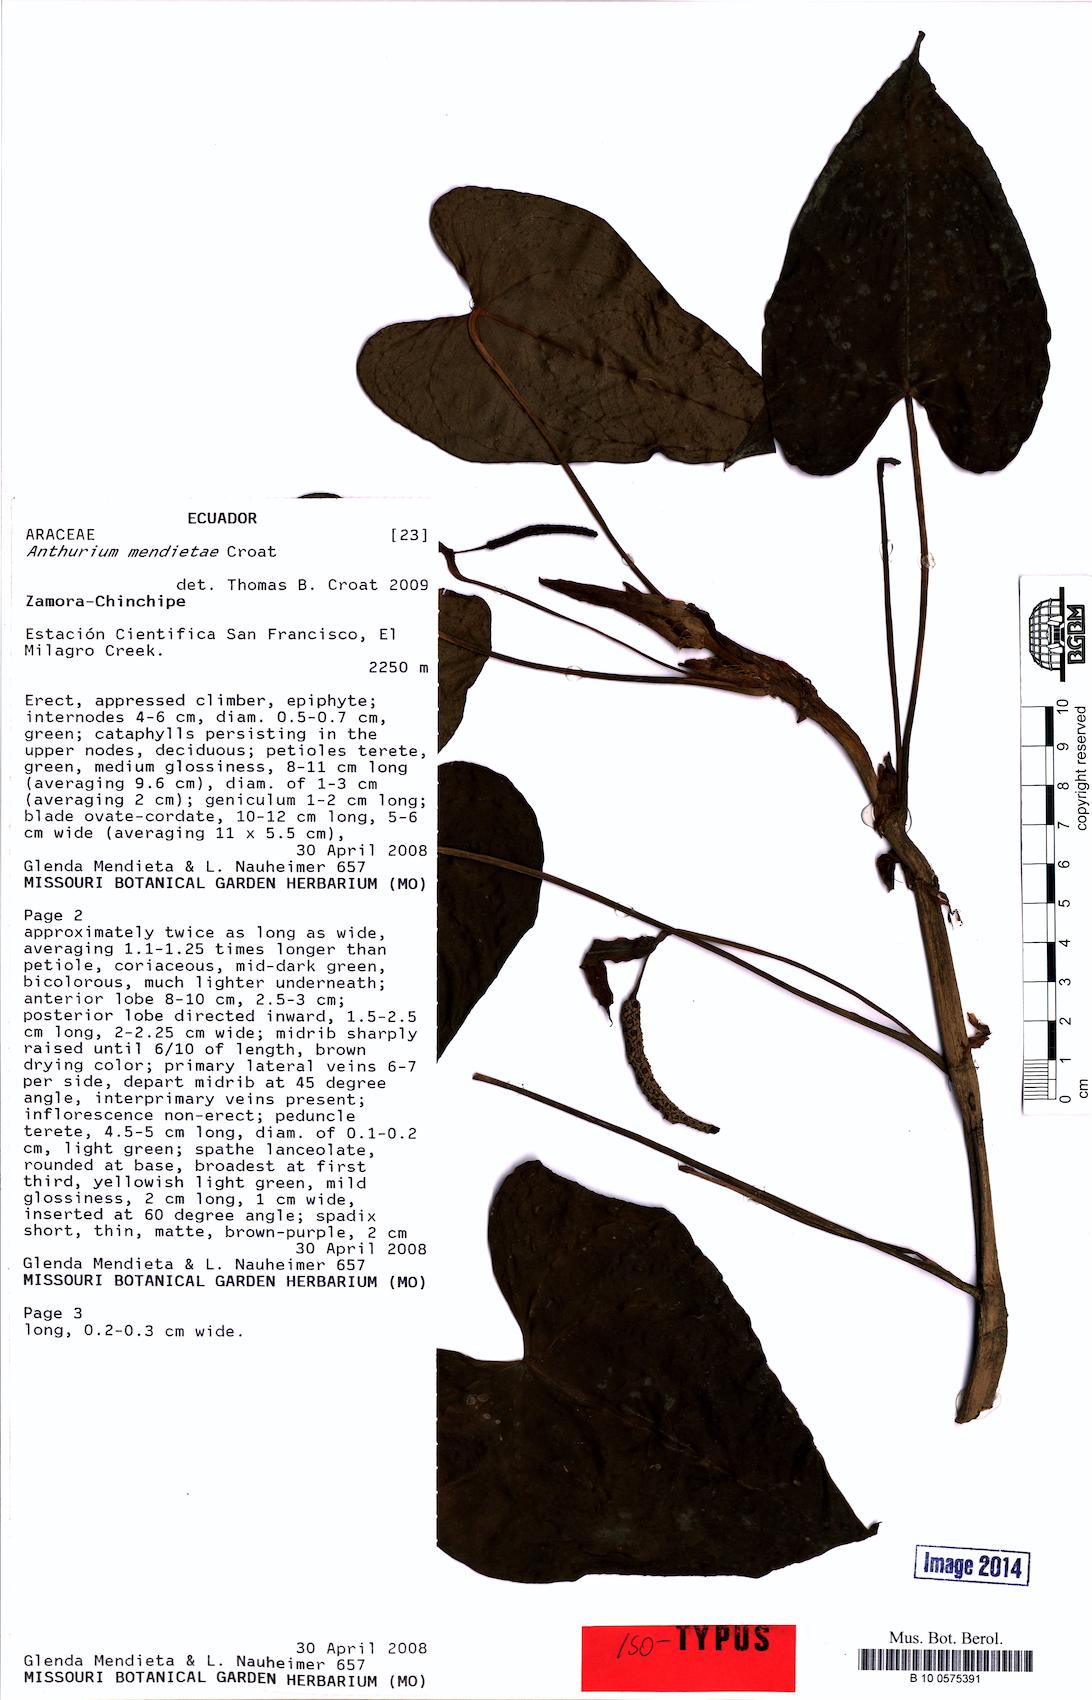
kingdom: Plantae
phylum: Tracheophyta
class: Liliopsida
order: Alismatales
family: Araceae
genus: Anthurium
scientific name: Anthurium mendietae
